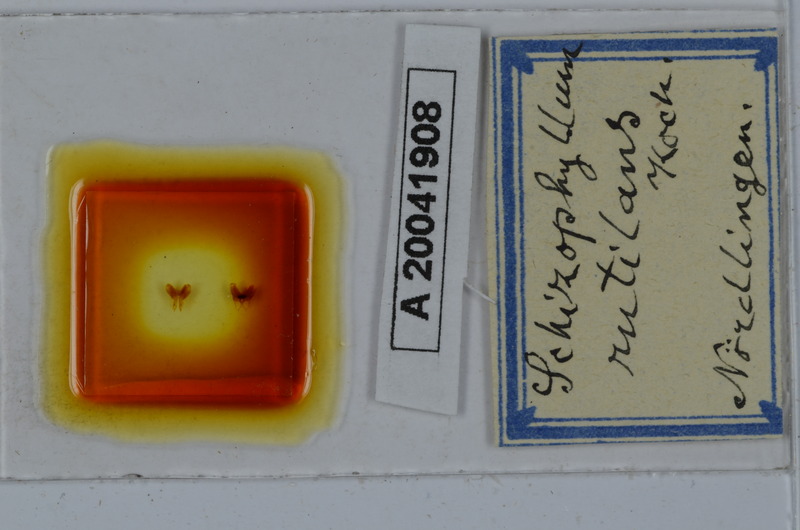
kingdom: Animalia
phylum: Arthropoda
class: Diplopoda
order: Julida
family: Julidae
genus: Ommatoiulus
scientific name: Ommatoiulus rutilans
